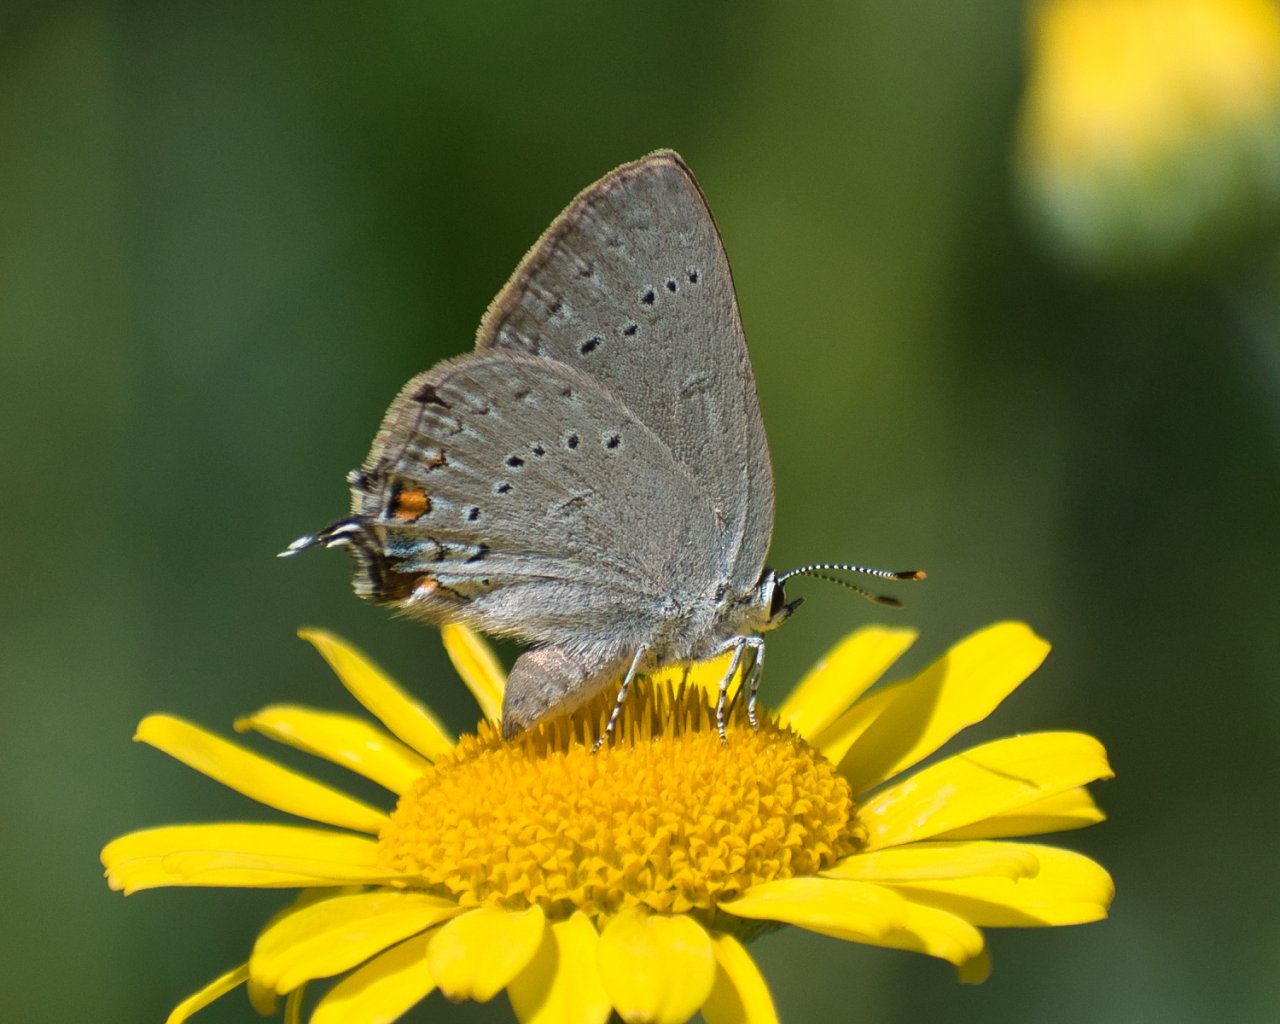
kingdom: Animalia
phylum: Arthropoda
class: Insecta
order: Lepidoptera
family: Lycaenidae
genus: Strymon
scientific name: Strymon sylvinus
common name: Sylvan Hairstreak
